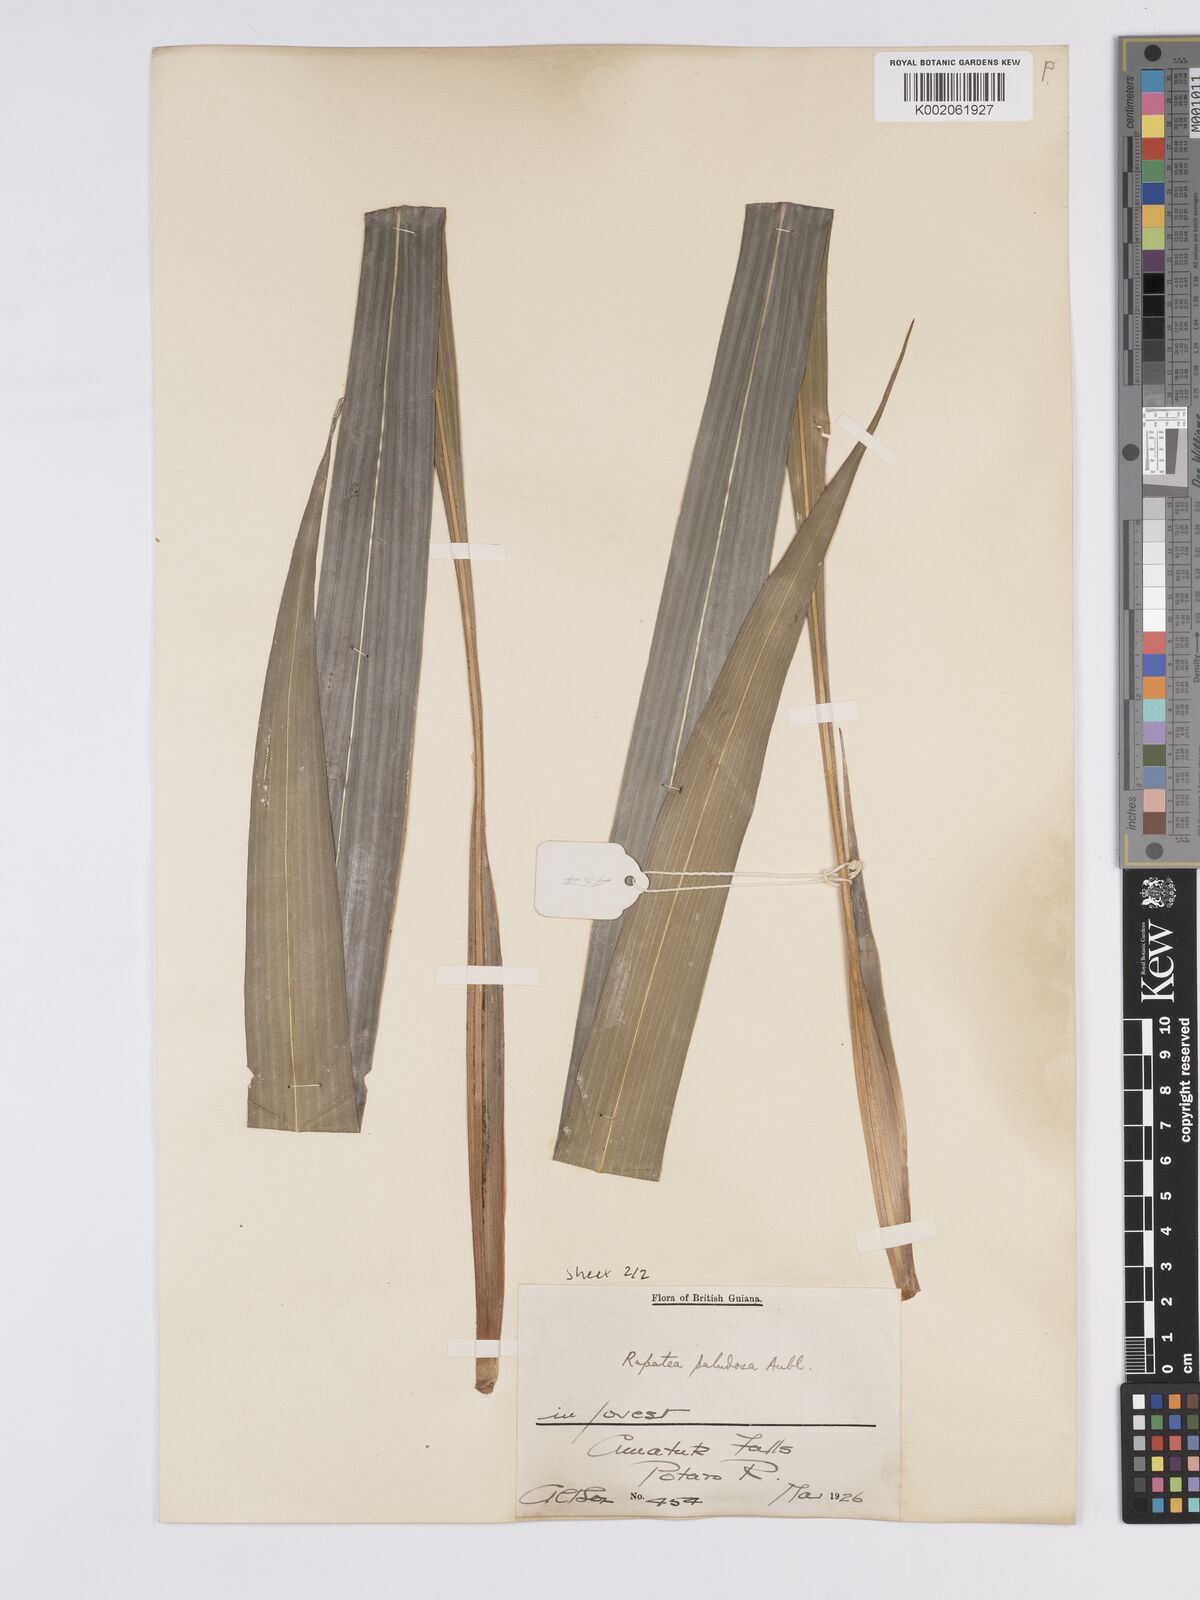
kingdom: Plantae
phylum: Tracheophyta
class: Liliopsida
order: Poales
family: Rapateaceae
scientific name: Rapateaceae
